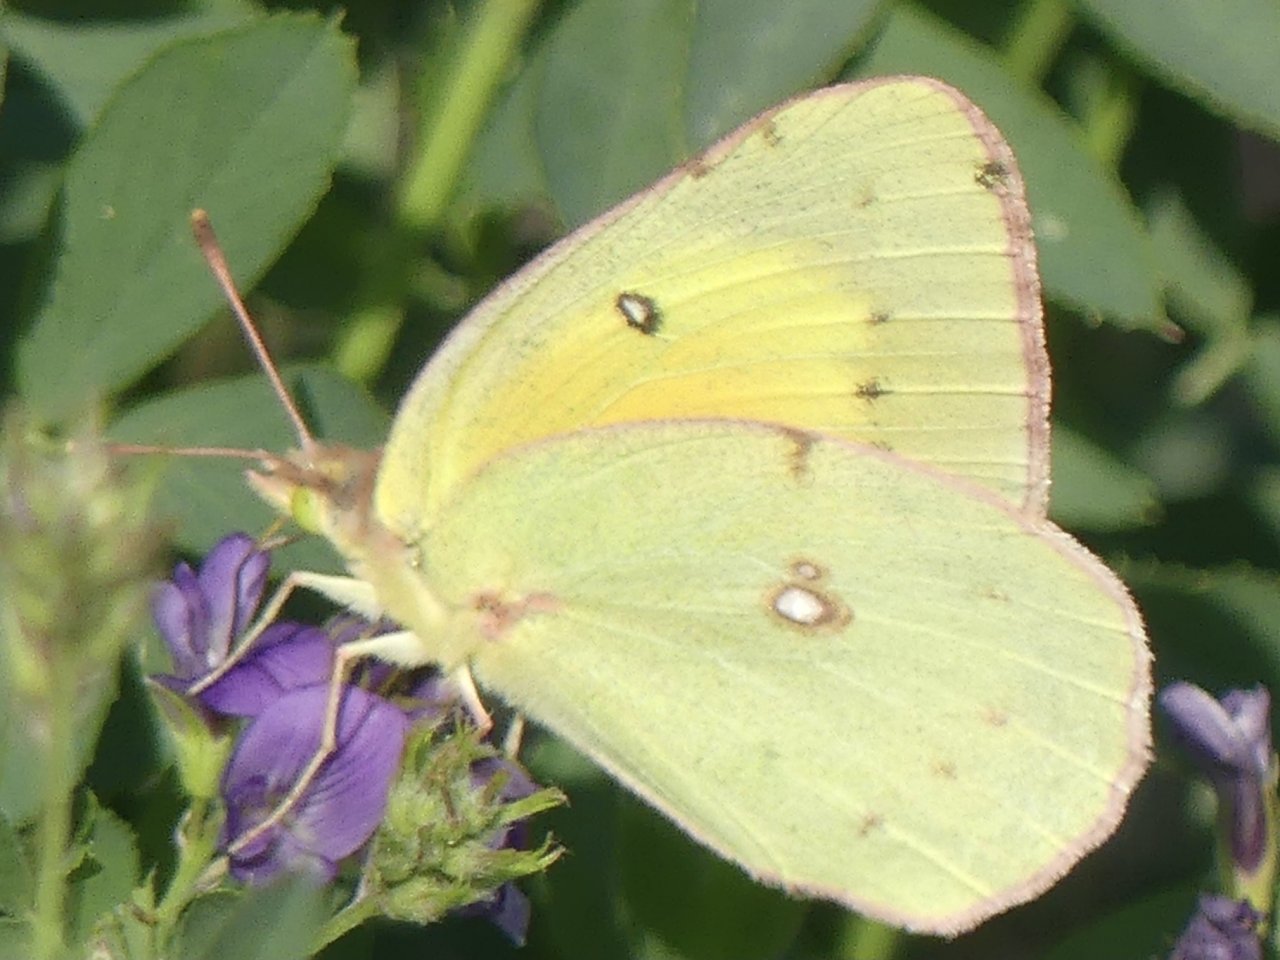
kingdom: Animalia
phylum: Arthropoda
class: Insecta
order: Lepidoptera
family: Pieridae
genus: Colias
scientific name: Colias philodice
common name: Clouded Sulphur
